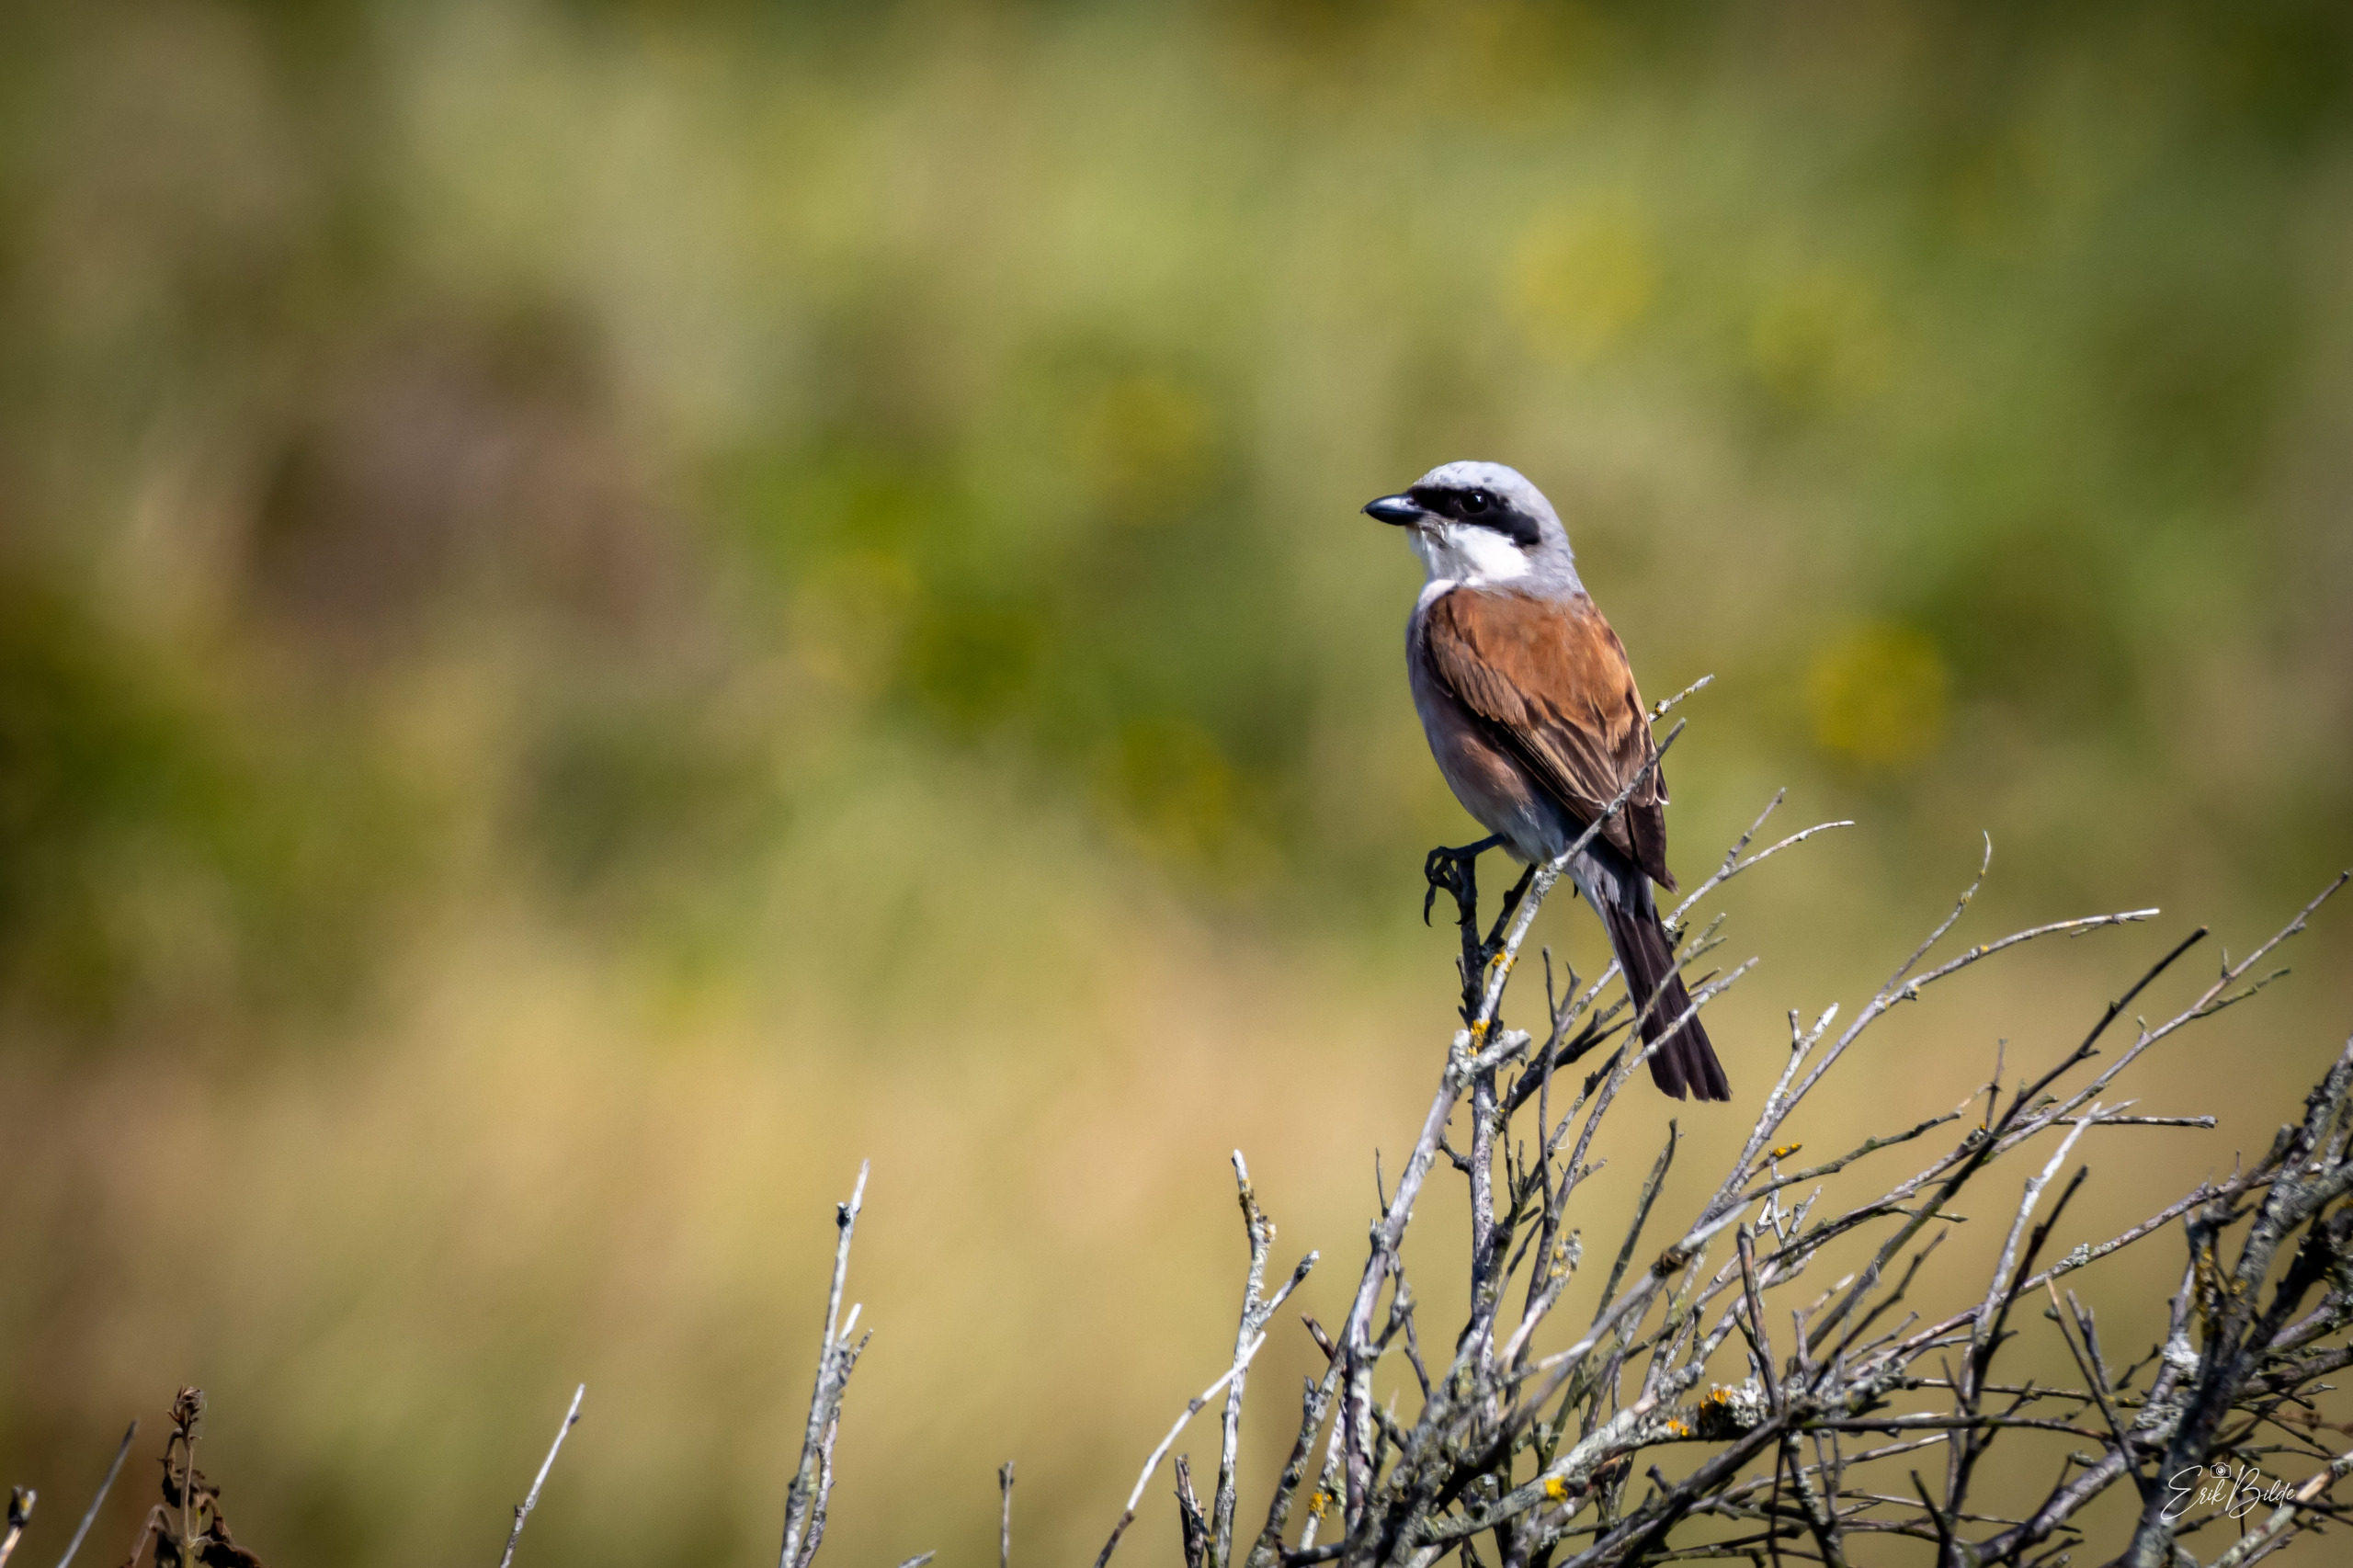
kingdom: Animalia
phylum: Chordata
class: Aves
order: Passeriformes
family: Laniidae
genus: Lanius
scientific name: Lanius collurio
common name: Rødrygget tornskade
